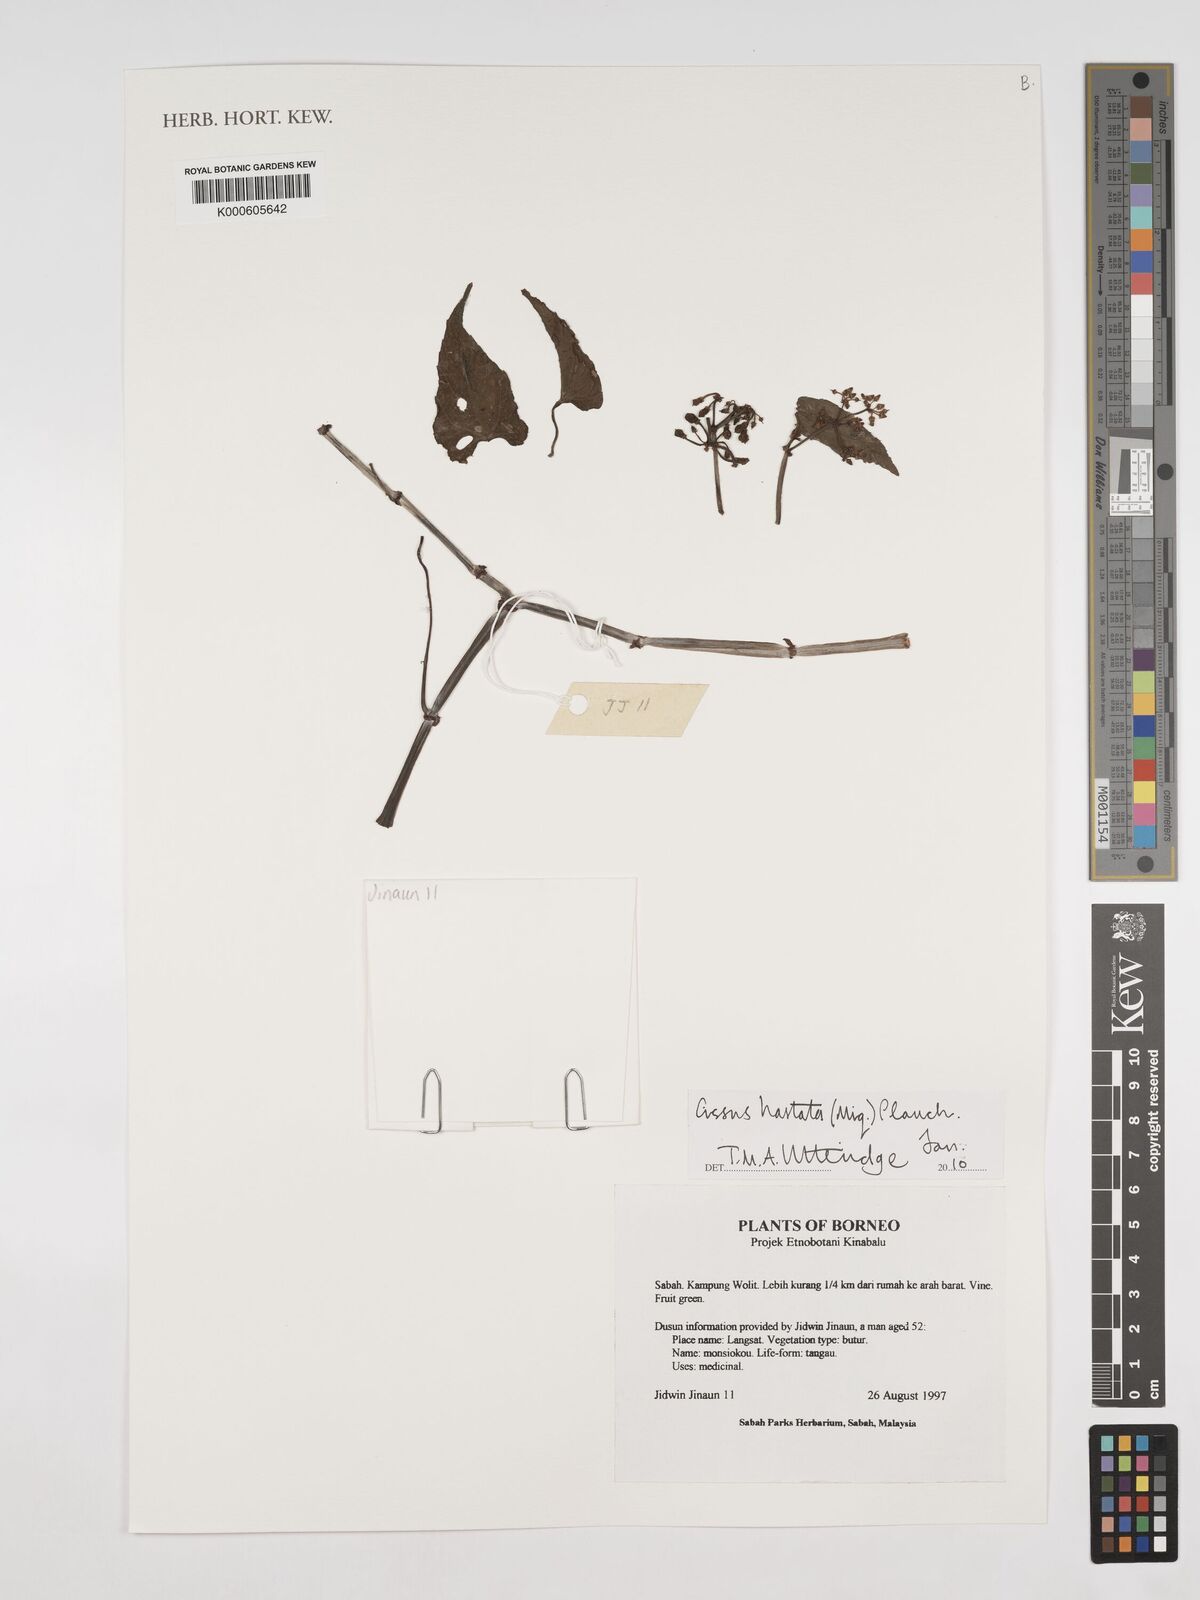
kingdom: Plantae
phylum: Tracheophyta
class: Magnoliopsida
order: Vitales
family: Vitaceae
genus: Cissus
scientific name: Cissus
